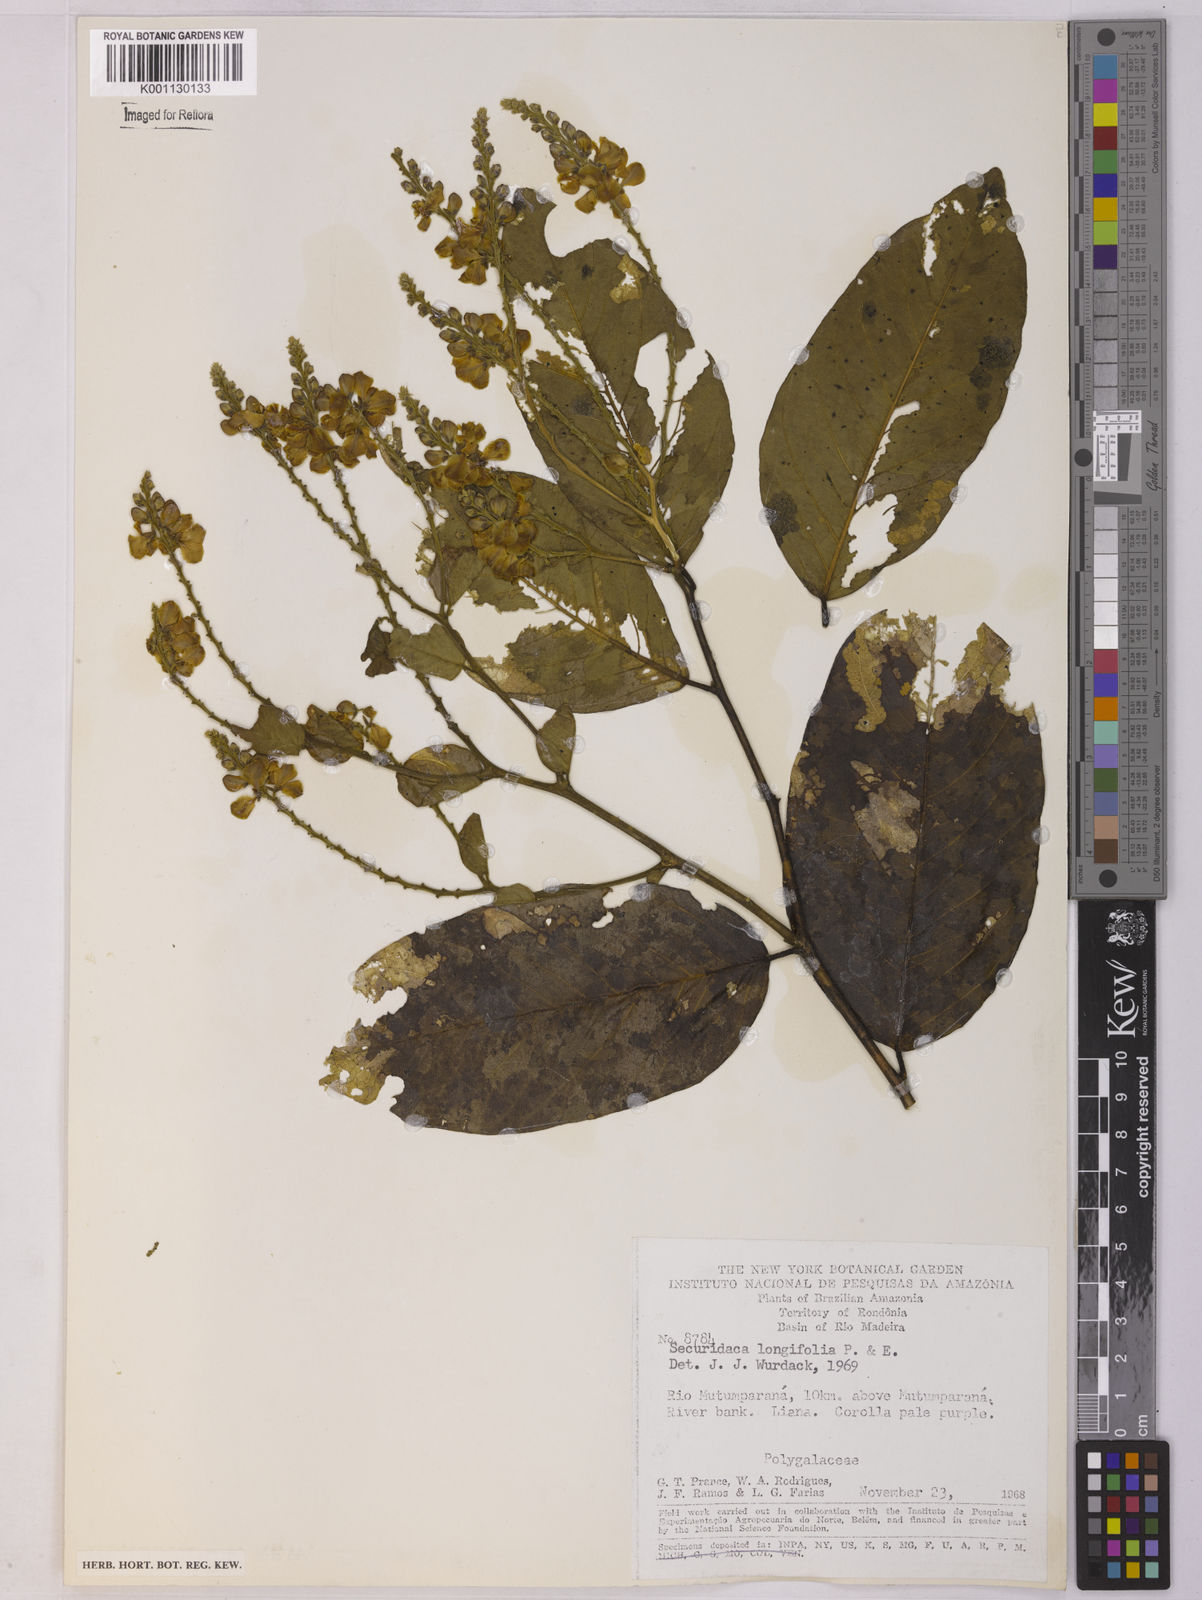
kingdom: Plantae
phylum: Tracheophyta
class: Magnoliopsida
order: Fabales
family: Polygalaceae
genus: Securidaca
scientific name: Securidaca longifolia
